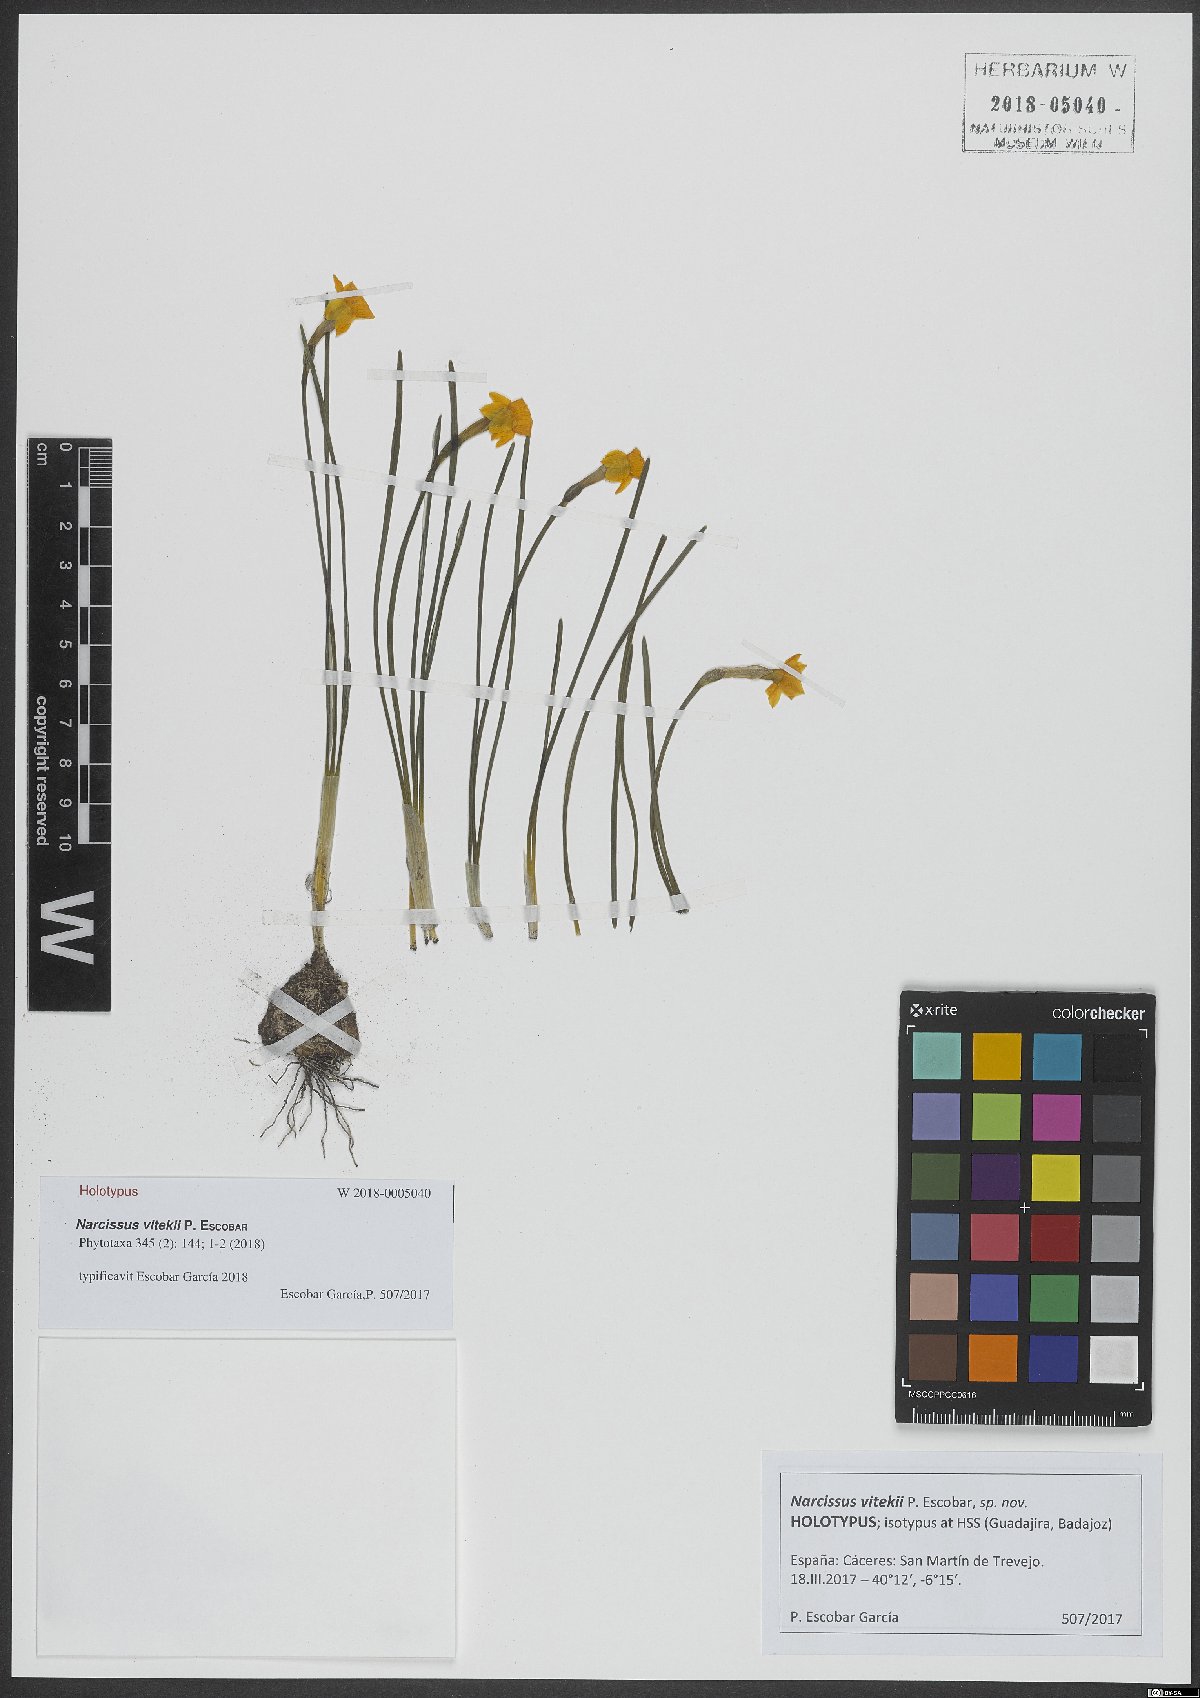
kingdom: Plantae
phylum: Tracheophyta
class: Liliopsida
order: Asparagales
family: Amaryllidaceae
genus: Narcissus
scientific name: Narcissus vitekii
